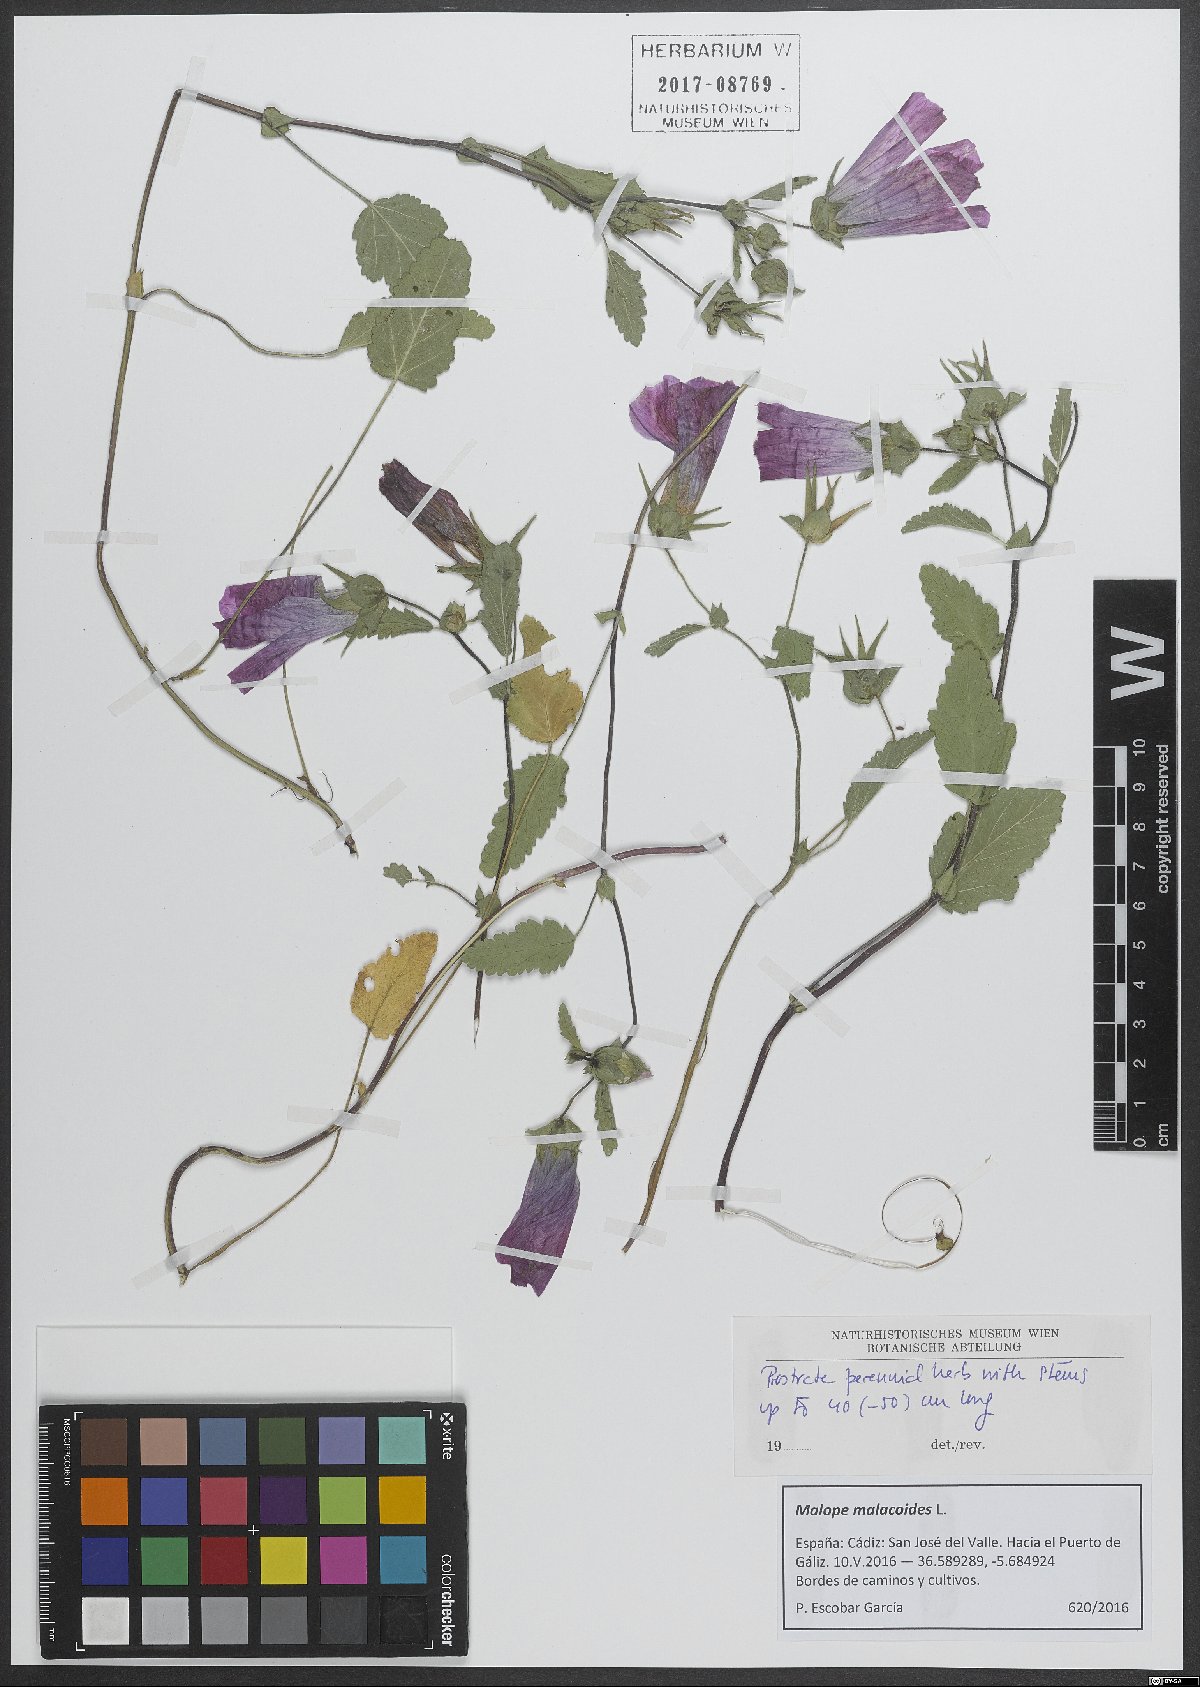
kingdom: Plantae
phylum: Tracheophyta
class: Magnoliopsida
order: Malvales
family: Malvaceae
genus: Malope
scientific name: Malope malacoides
